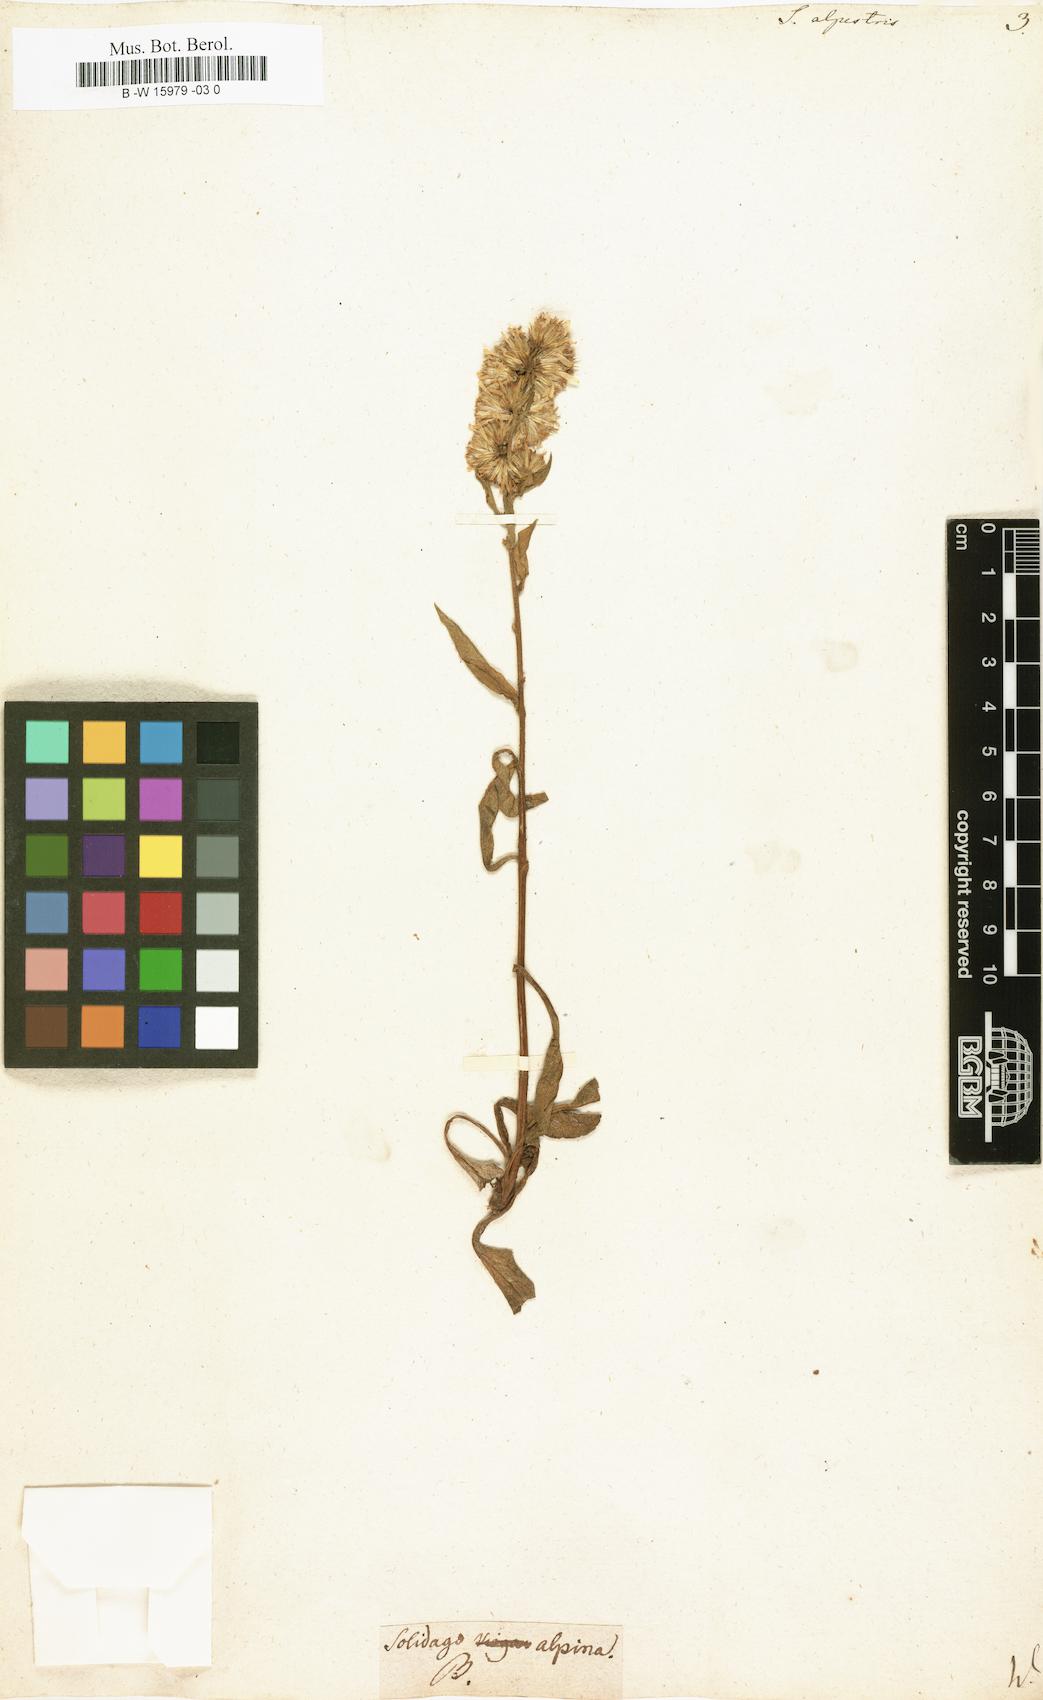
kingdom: Plantae
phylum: Tracheophyta
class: Magnoliopsida
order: Asterales
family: Asteraceae
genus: Solidago
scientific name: Solidago
